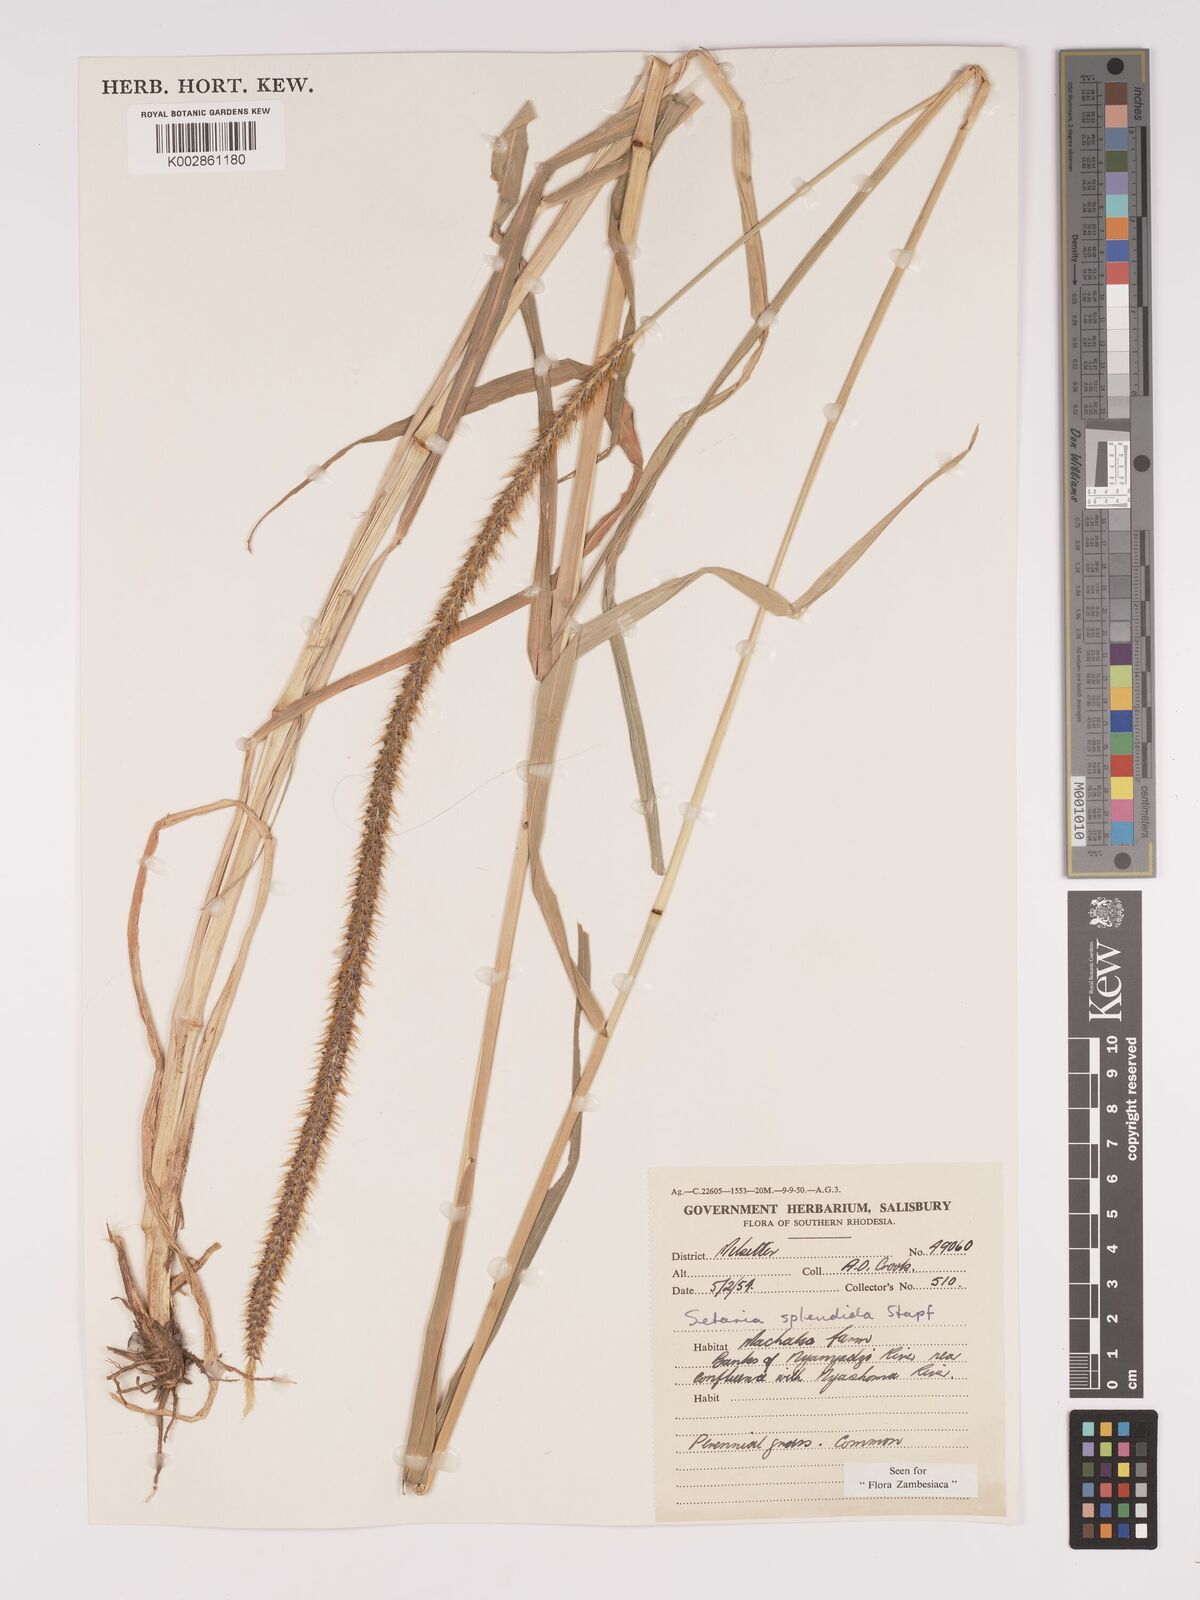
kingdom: Plantae
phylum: Tracheophyta
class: Liliopsida
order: Poales
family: Poaceae
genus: Setaria
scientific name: Setaria sphacelata
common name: African bristlegrass
